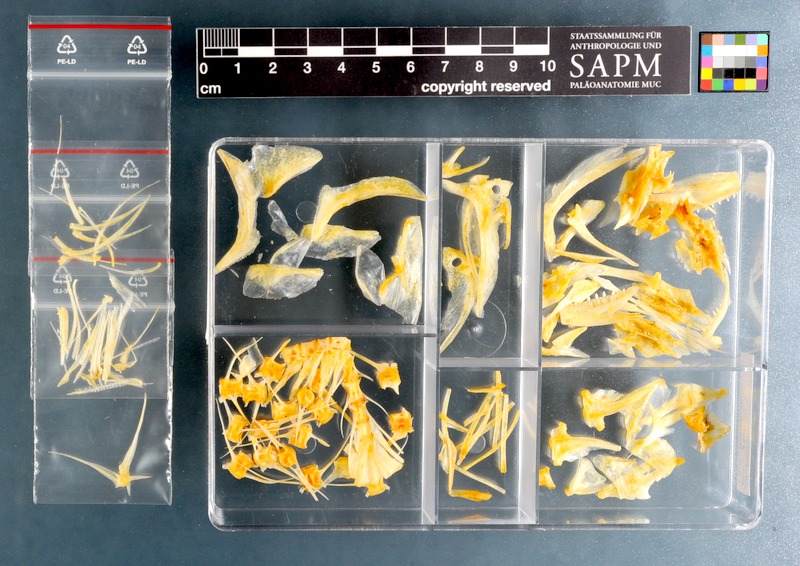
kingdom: Animalia
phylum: Chordata
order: Perciformes
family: Pomatomidae
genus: Pomatomus
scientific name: Pomatomus saltatrix
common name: Bluefish
